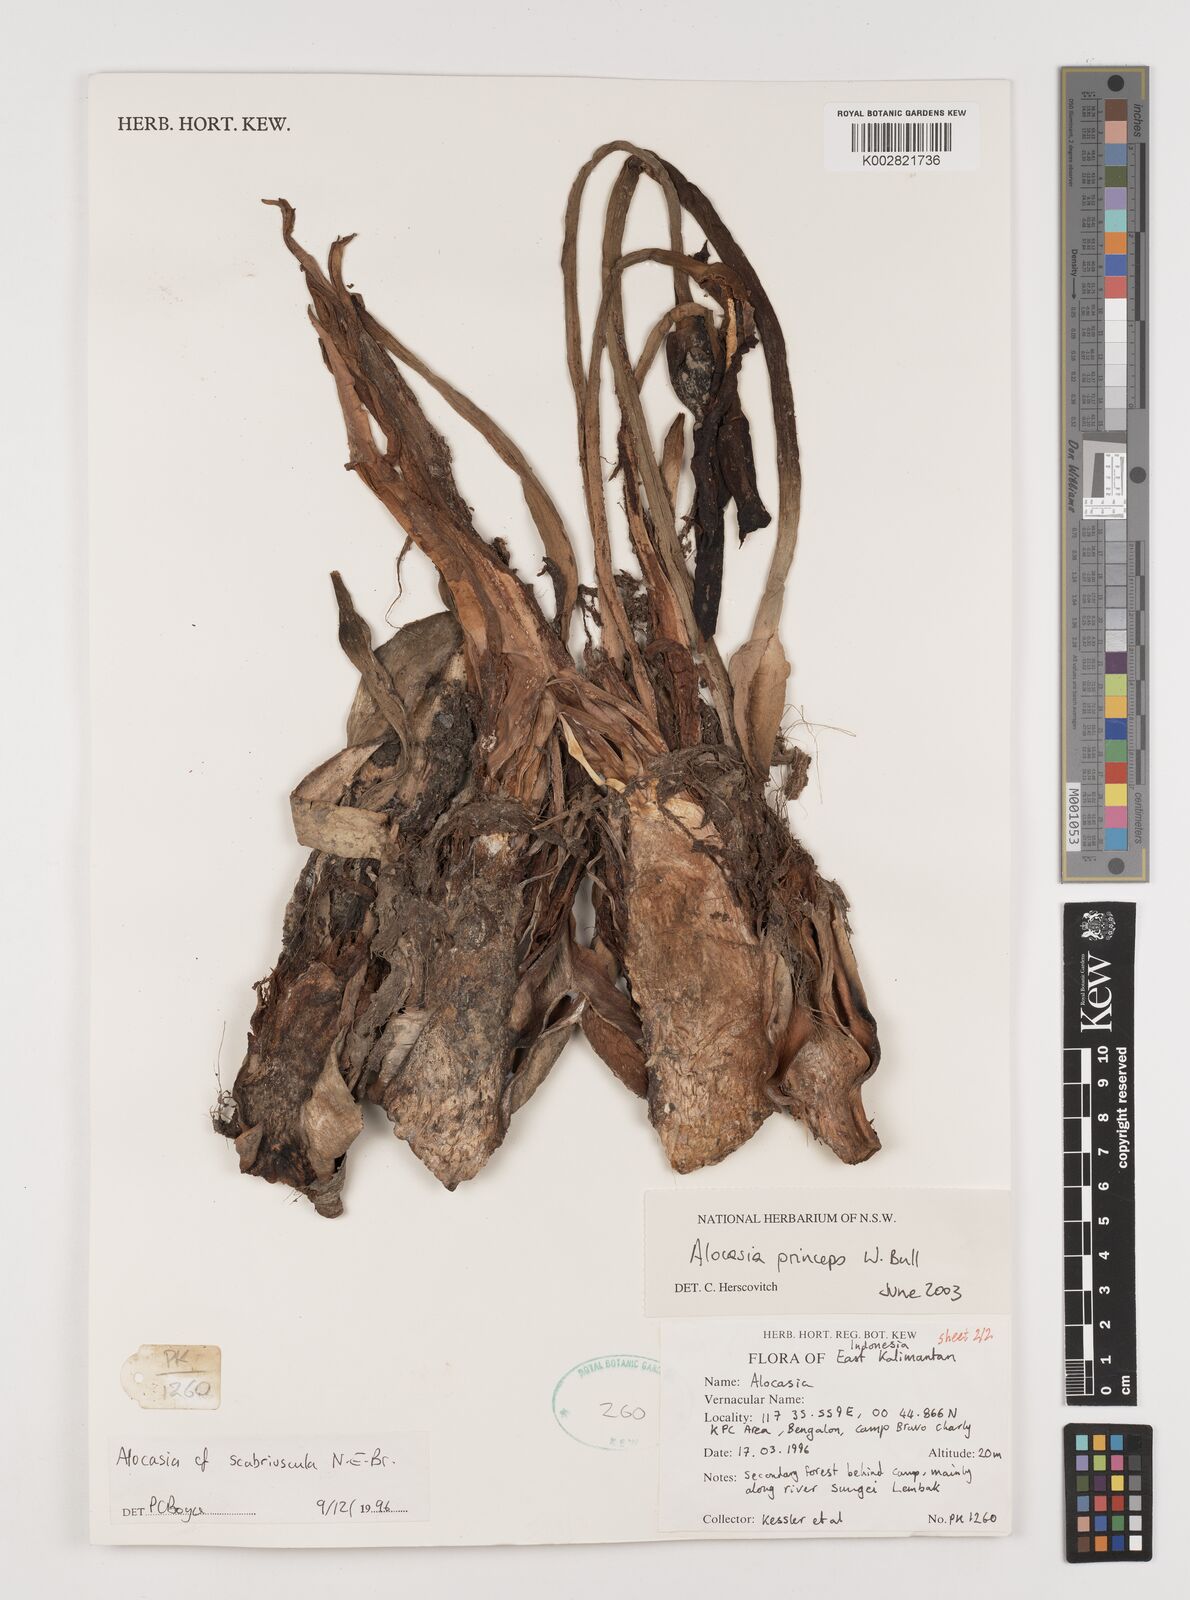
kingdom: Plantae
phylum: Tracheophyta
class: Liliopsida
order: Alismatales
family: Araceae
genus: Alocasia
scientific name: Alocasia princeps
